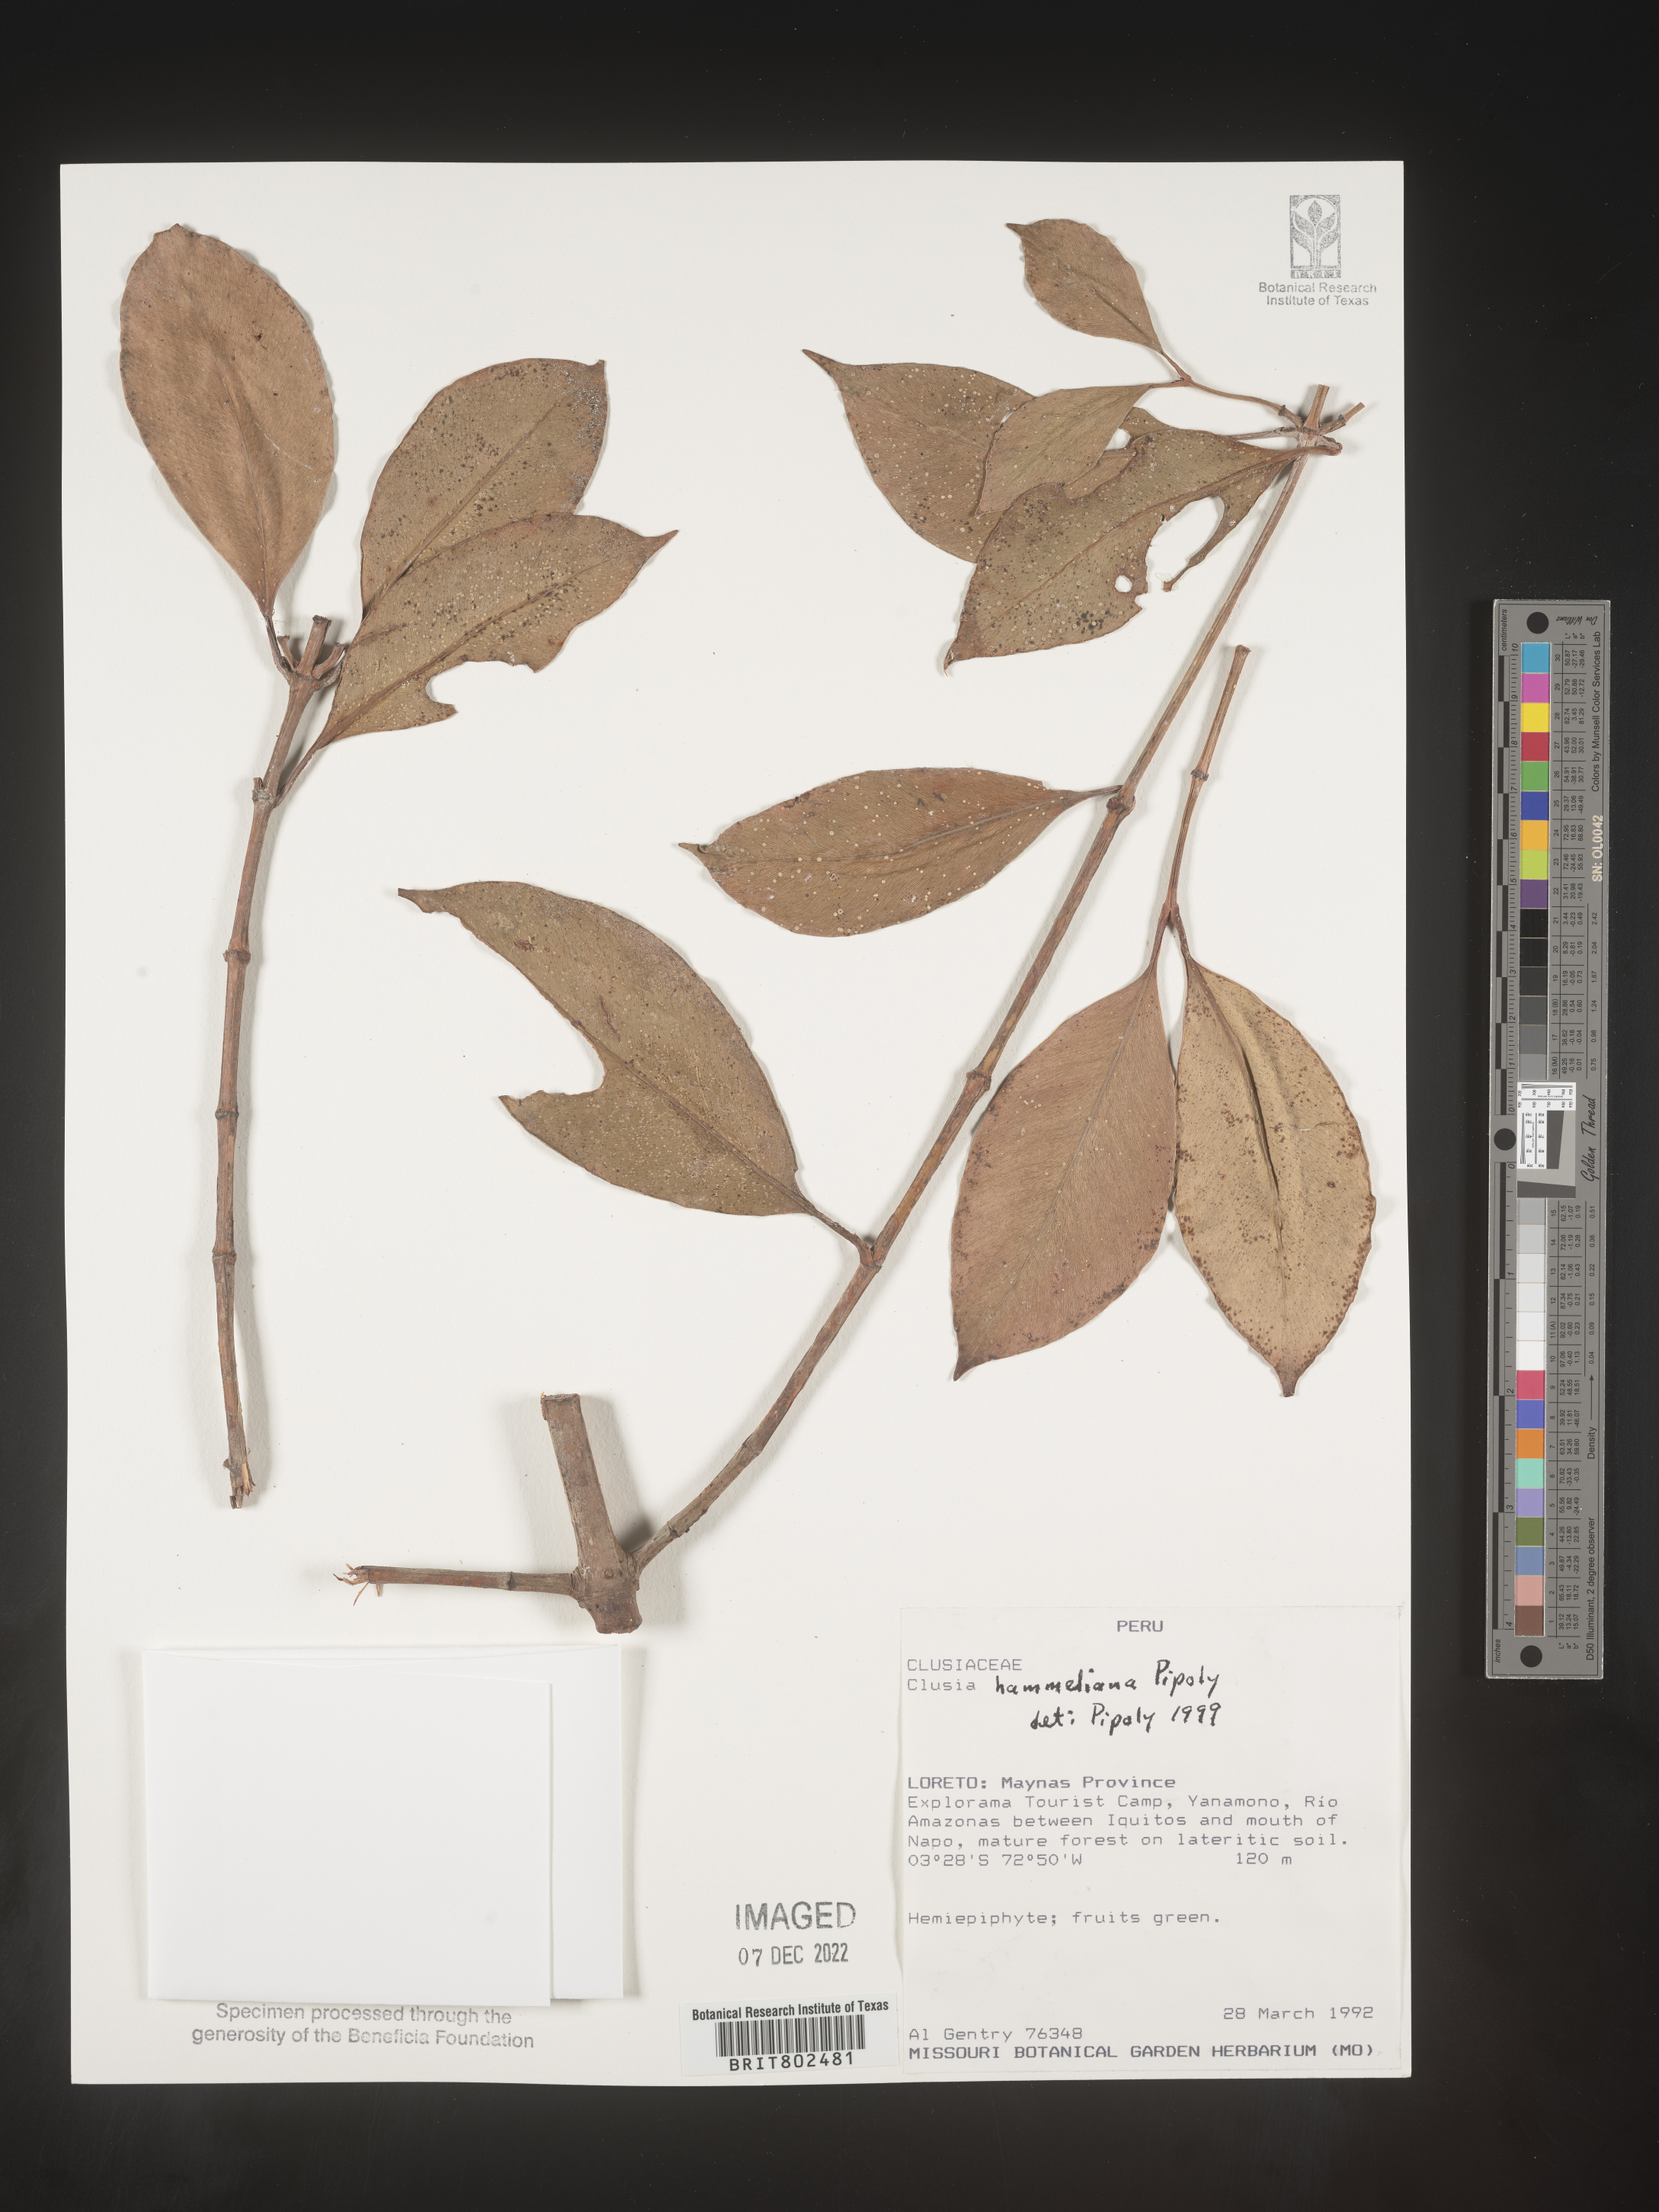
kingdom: Plantae
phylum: Tracheophyta
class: Magnoliopsida
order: Malpighiales
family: Clusiaceae
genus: Clusia
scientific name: Clusia hammeliana
